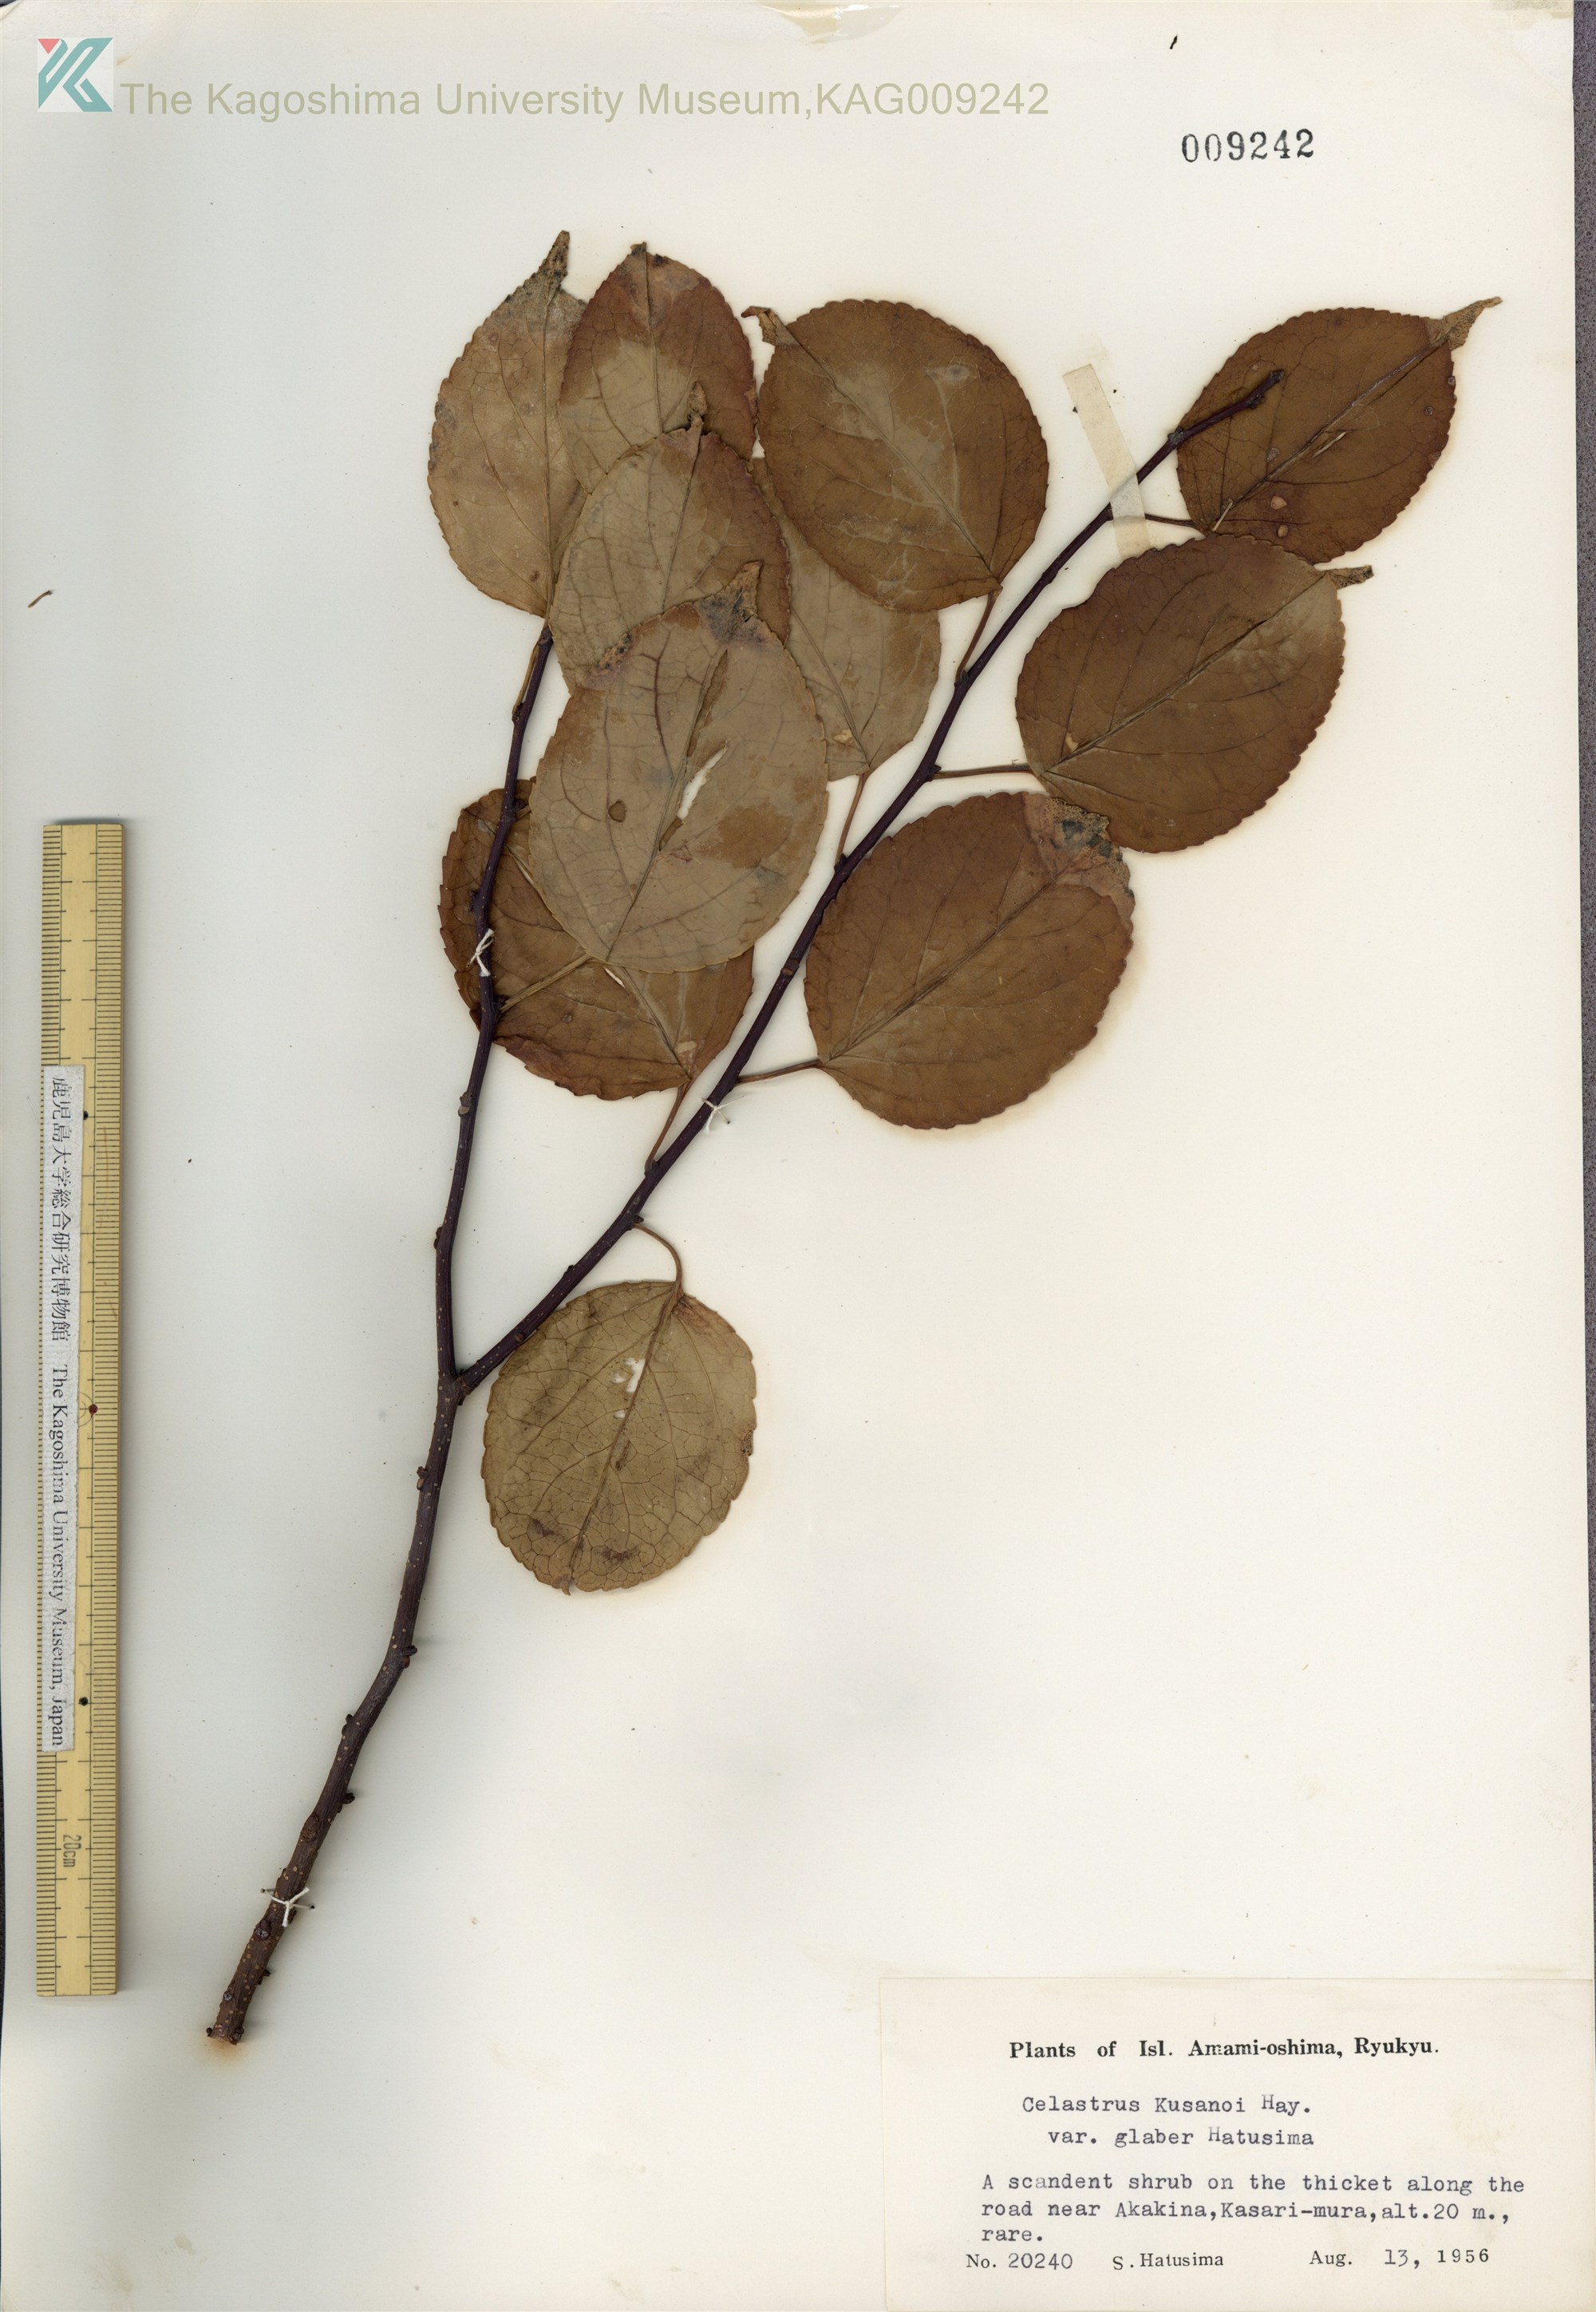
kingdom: Plantae
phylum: Tracheophyta
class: Magnoliopsida
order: Celastrales
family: Celastraceae
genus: Celastrus
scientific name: Celastrus hypoleucus
